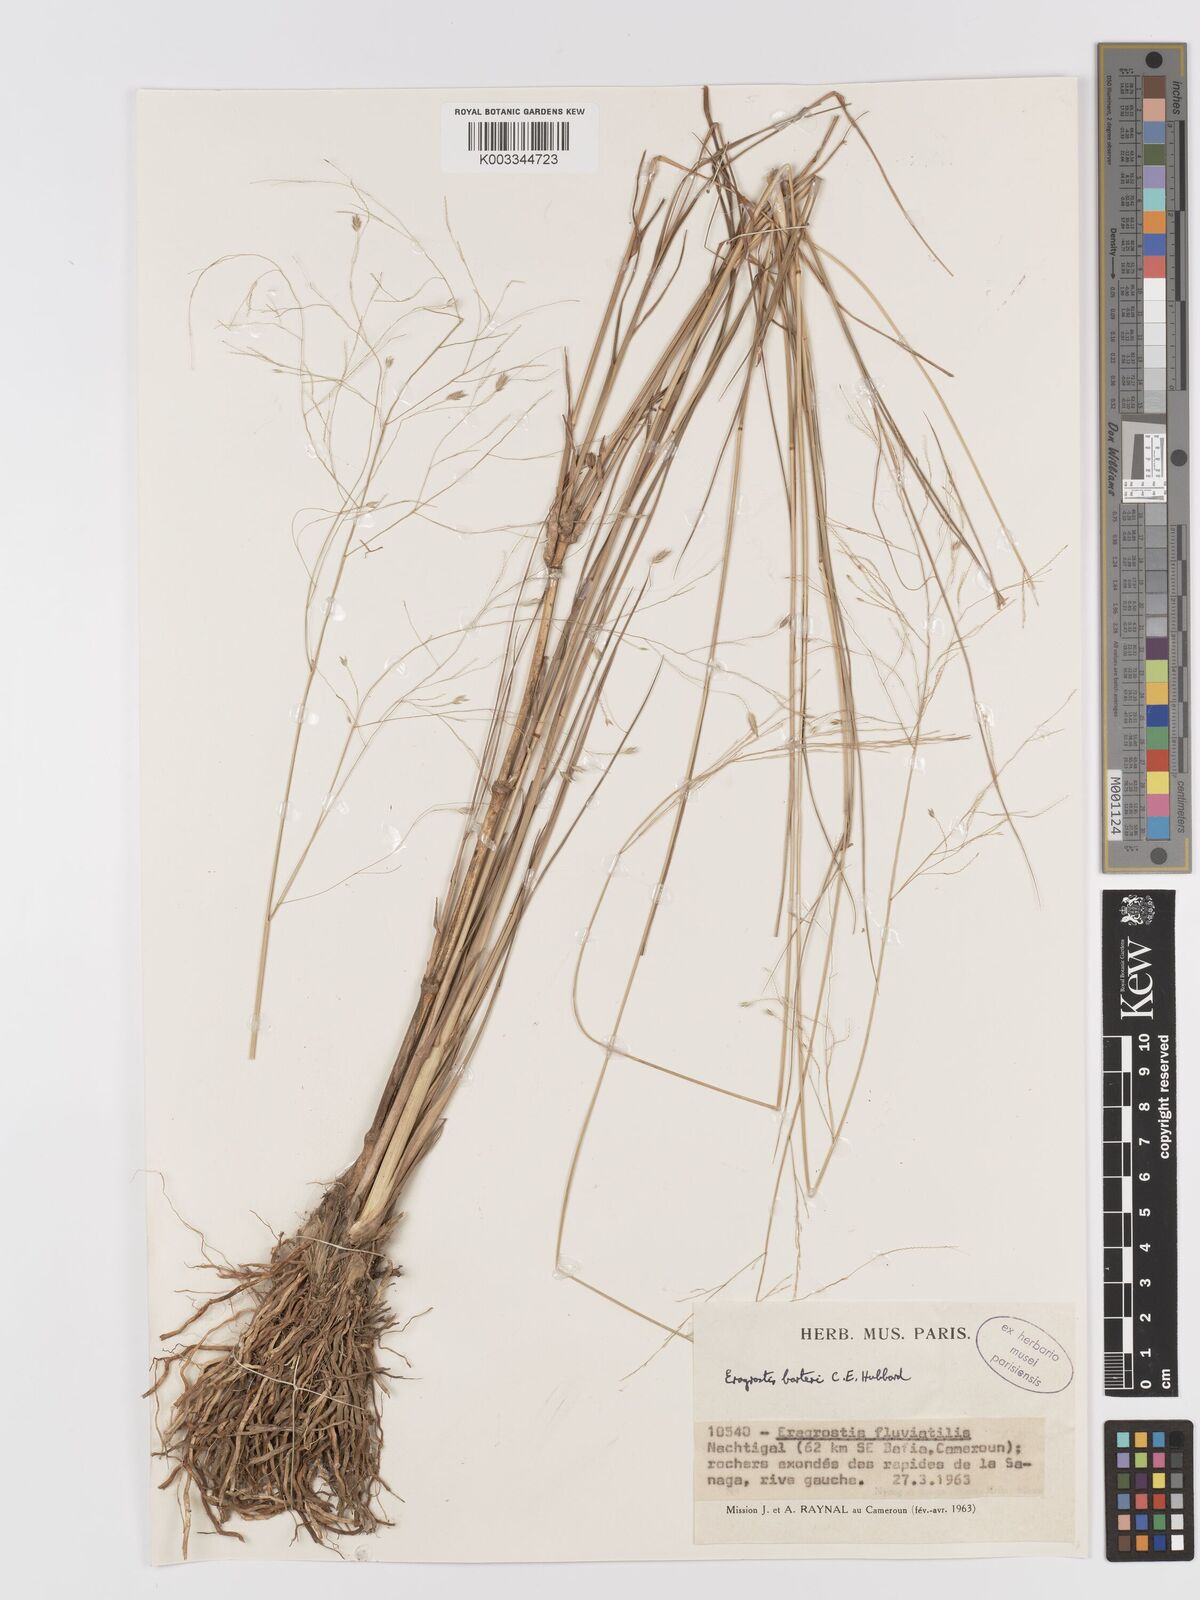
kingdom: Plantae
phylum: Tracheophyta
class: Liliopsida
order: Poales
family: Poaceae
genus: Eragrostis
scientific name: Eragrostis barteri
